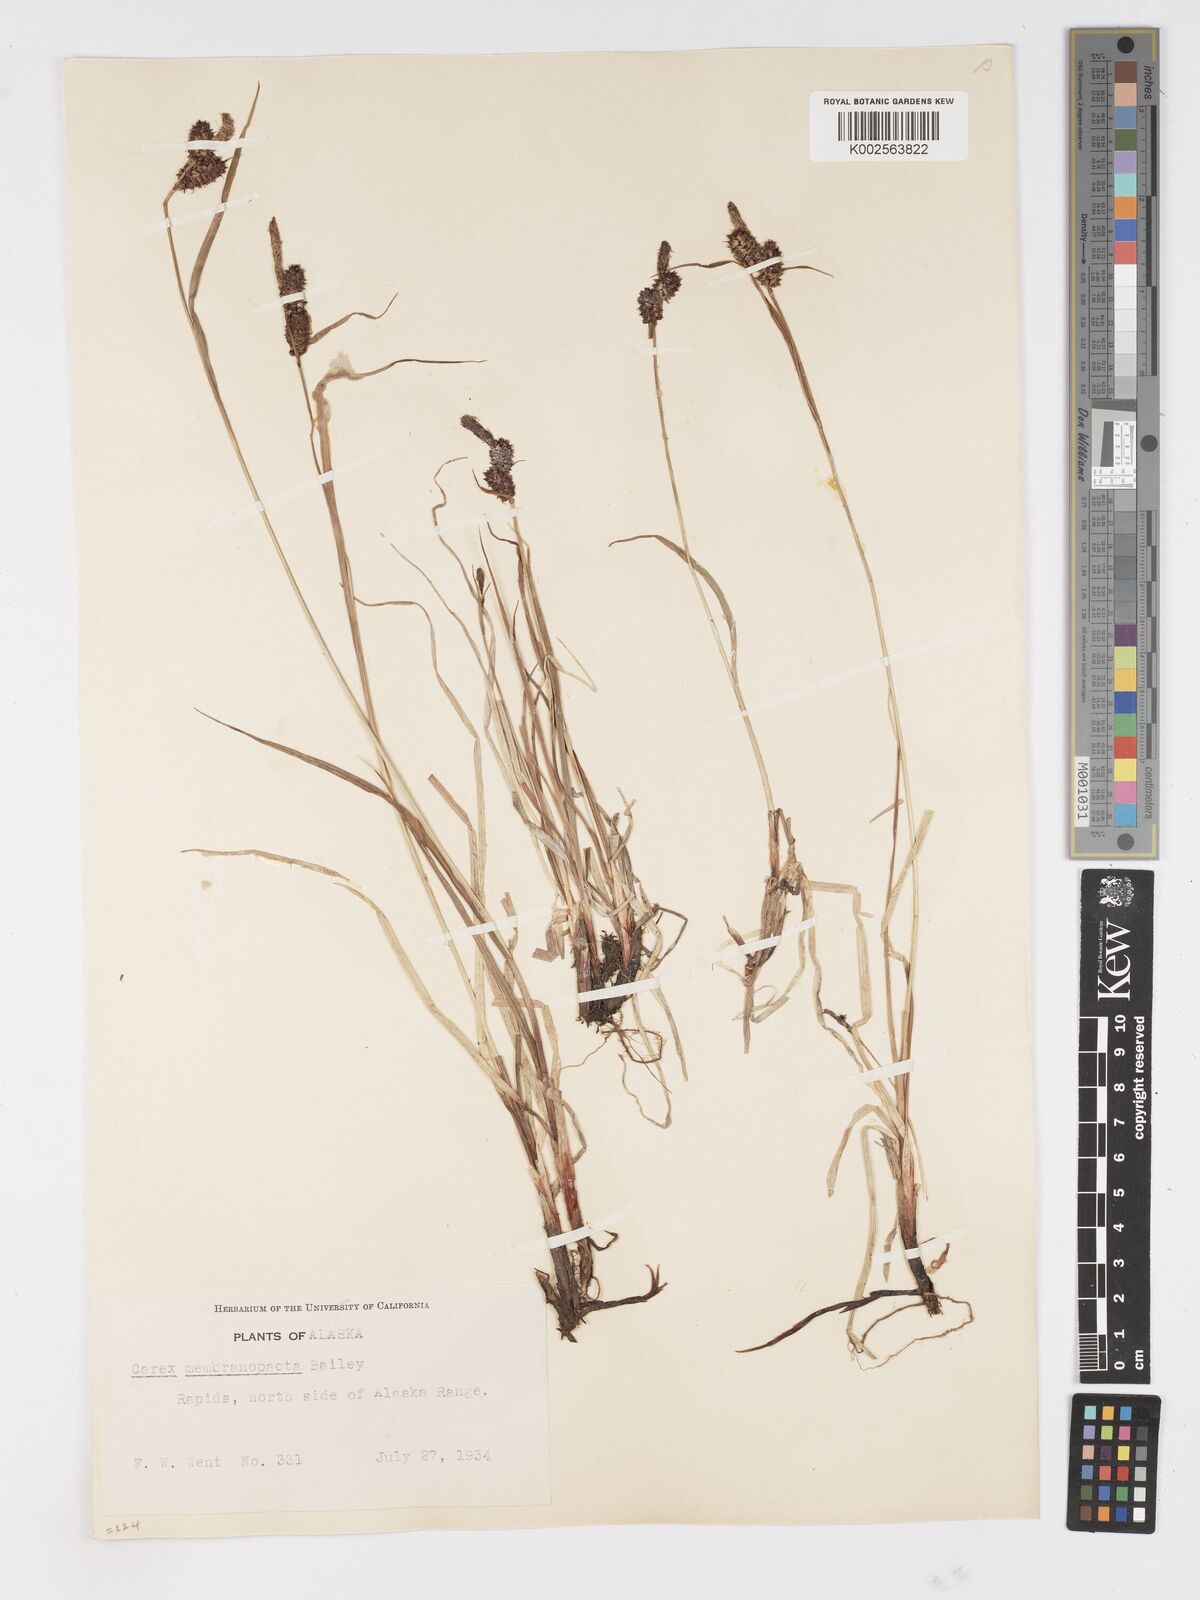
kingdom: Plantae
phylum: Tracheophyta
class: Liliopsida
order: Poales
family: Cyperaceae
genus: Carex
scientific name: Carex membranacea
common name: Fragile sedge
